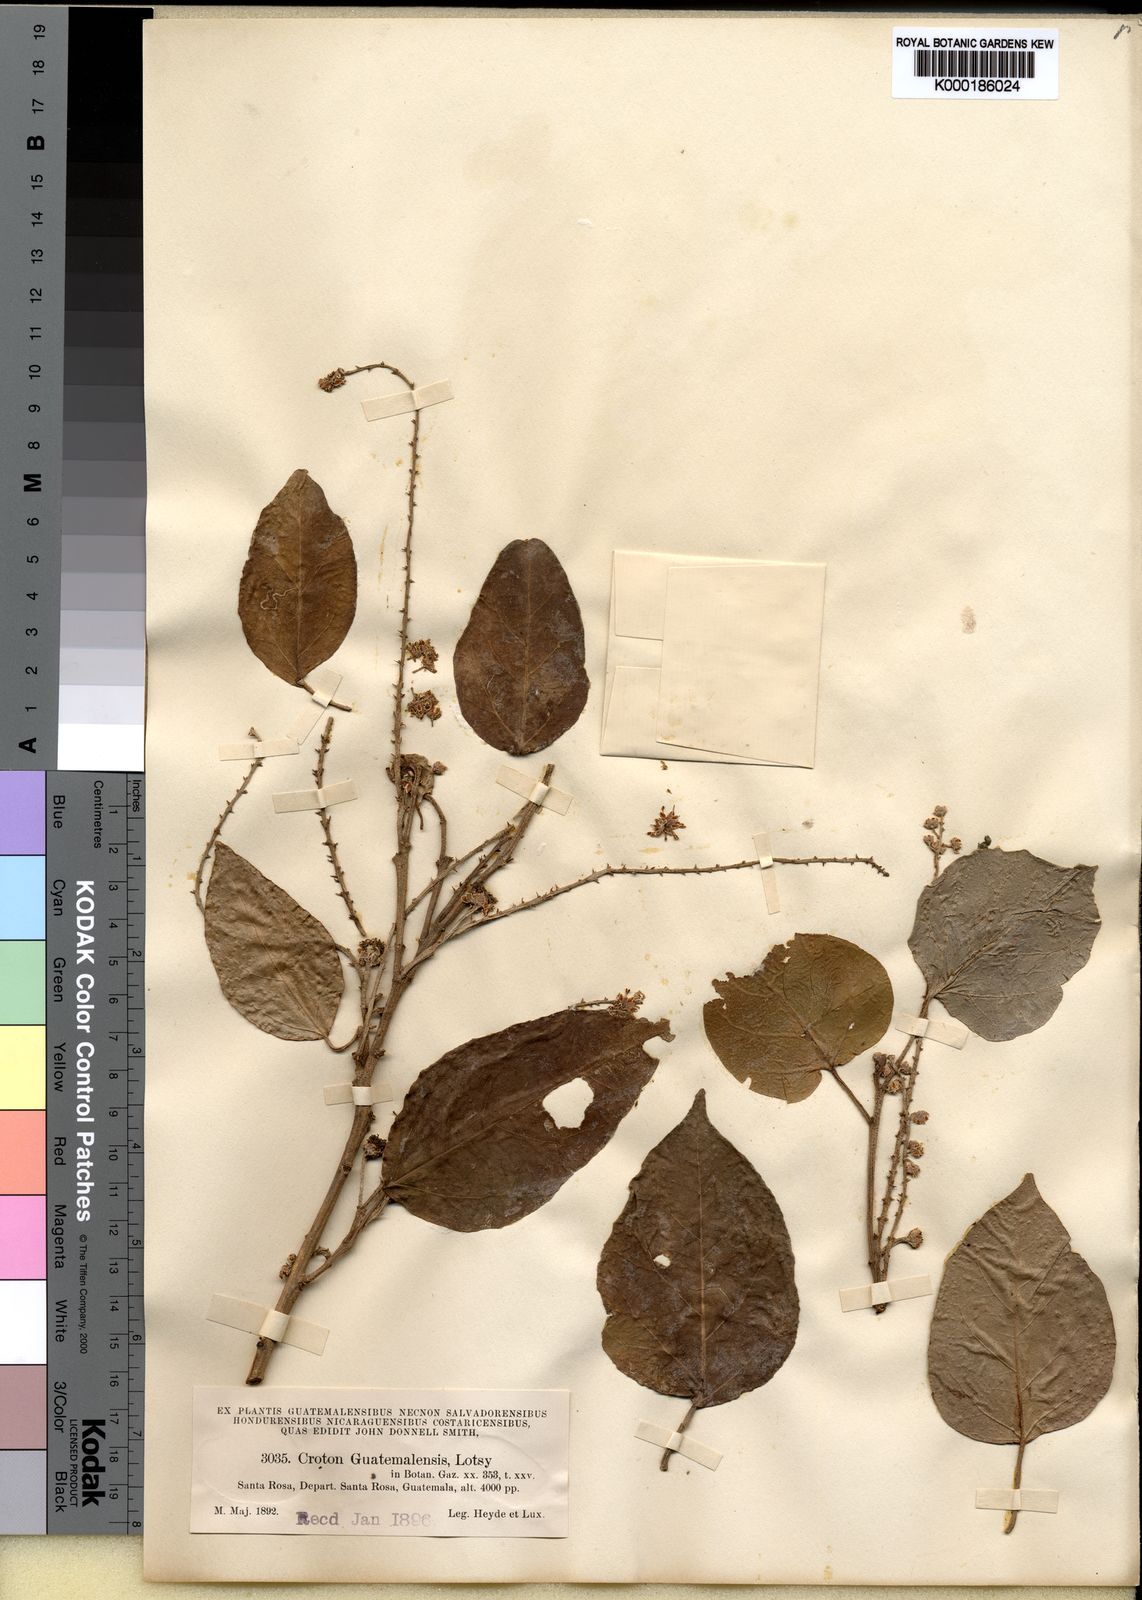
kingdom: Plantae
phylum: Tracheophyta
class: Magnoliopsida
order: Malpighiales
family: Euphorbiaceae
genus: Croton
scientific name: Croton guatemalensis
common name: Copalchi
